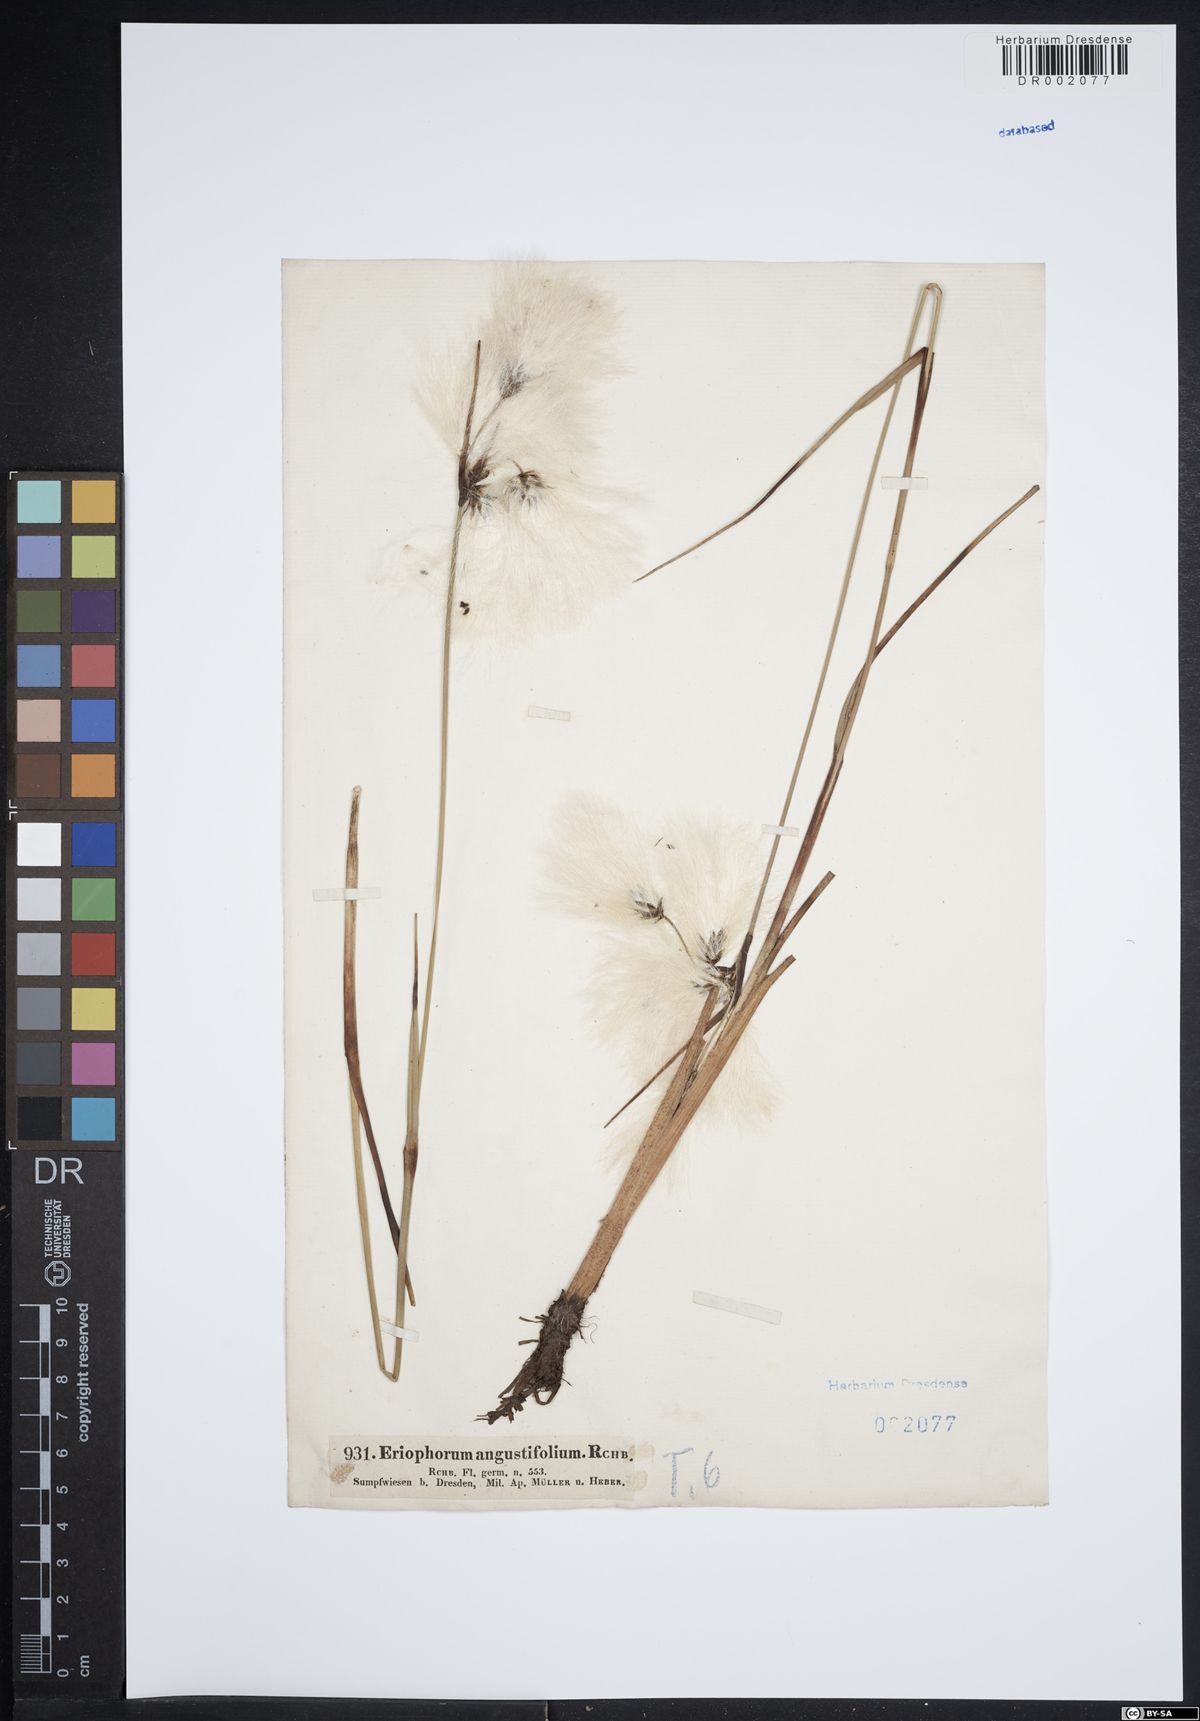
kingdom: Plantae
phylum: Tracheophyta
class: Liliopsida
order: Poales
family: Cyperaceae
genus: Eriophorum
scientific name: Eriophorum angustifolium
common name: Common cottongrass
